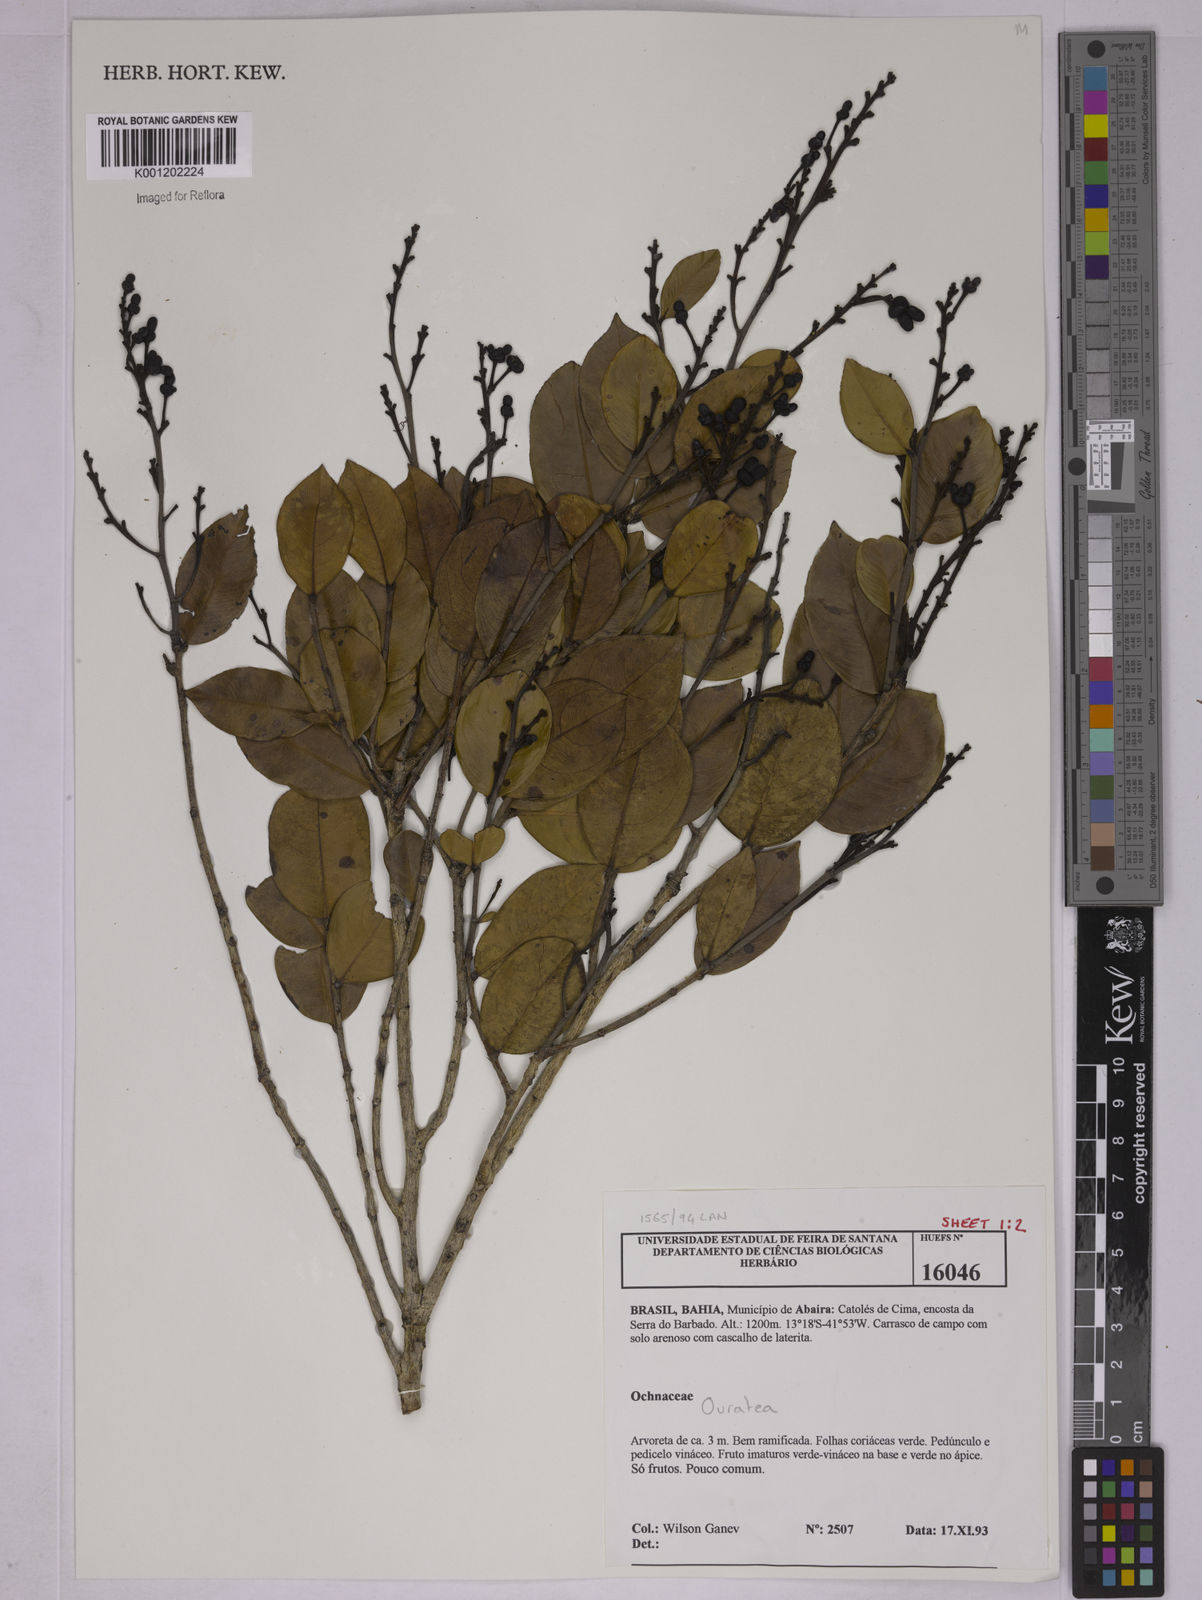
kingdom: Plantae
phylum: Tracheophyta
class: Magnoliopsida
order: Malpighiales
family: Ochnaceae
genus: Ouratea
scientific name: Ouratea
